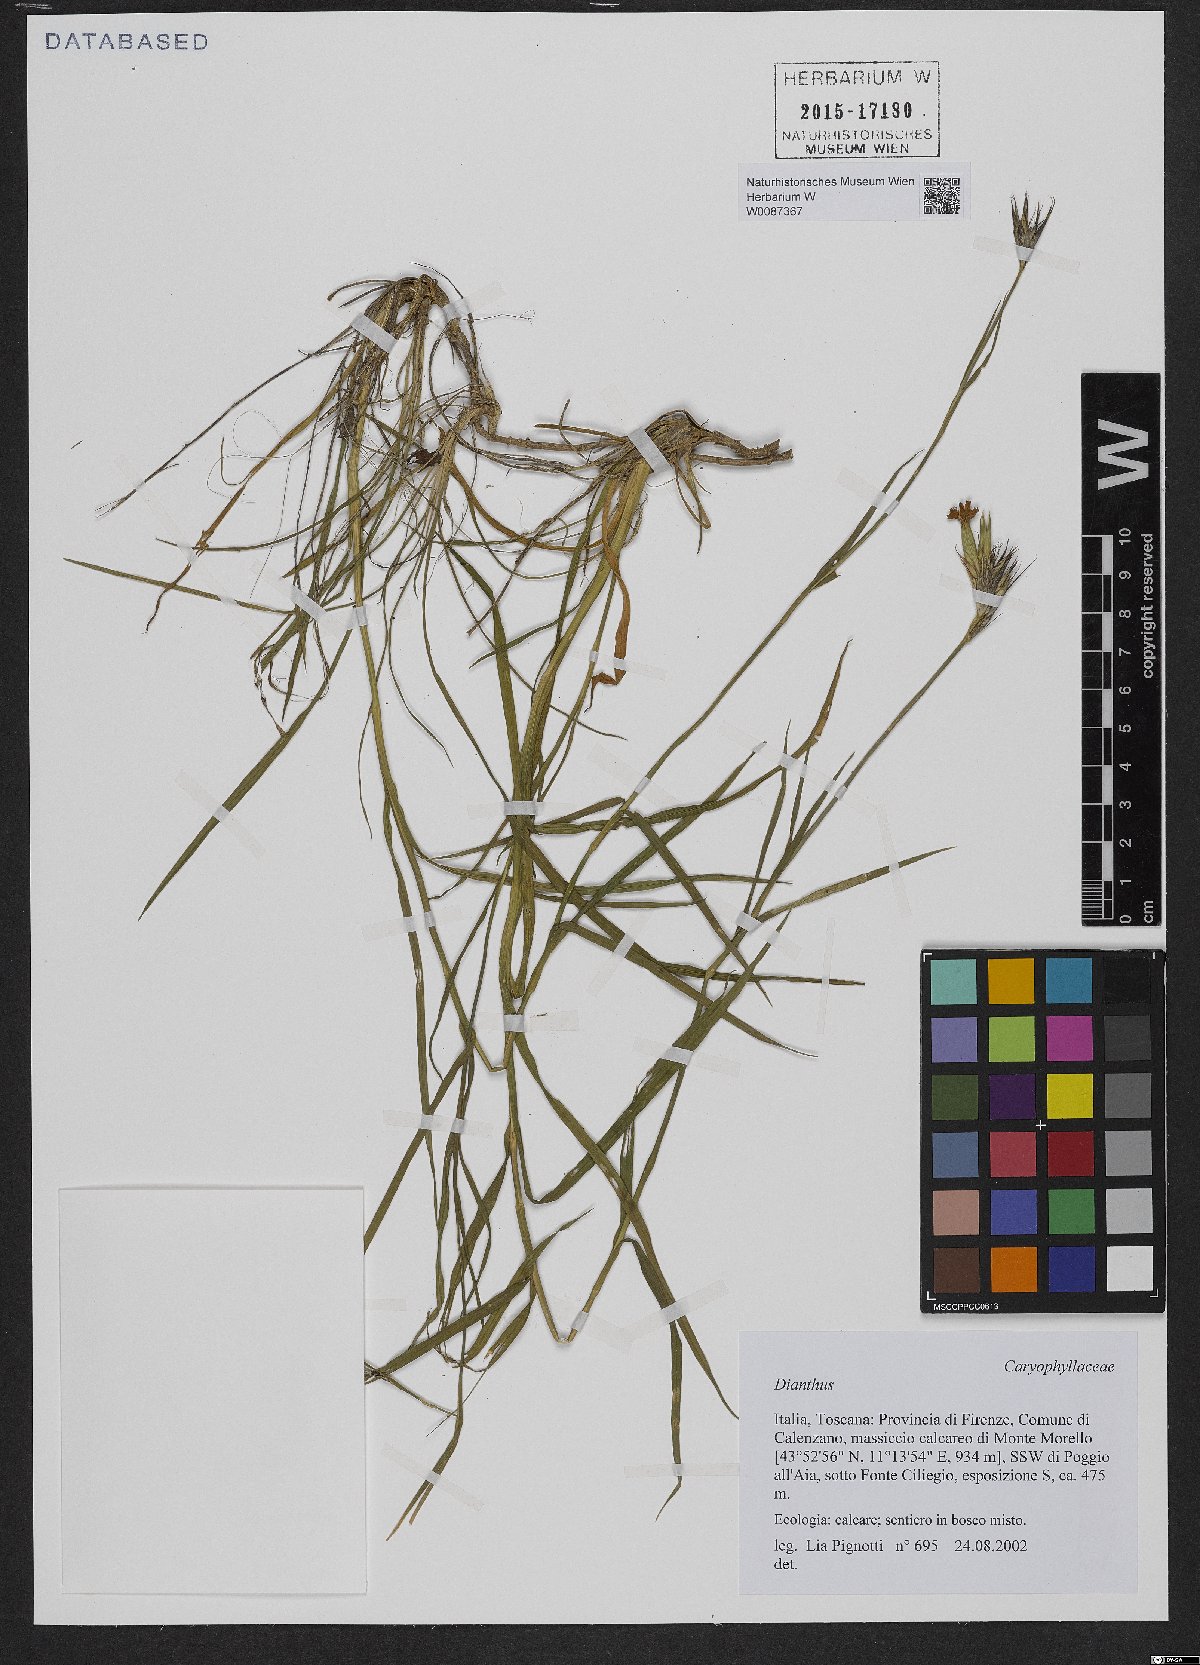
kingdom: Plantae
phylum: Tracheophyta
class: Magnoliopsida
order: Caryophyllales
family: Caryophyllaceae
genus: Dianthus
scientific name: Dianthus
